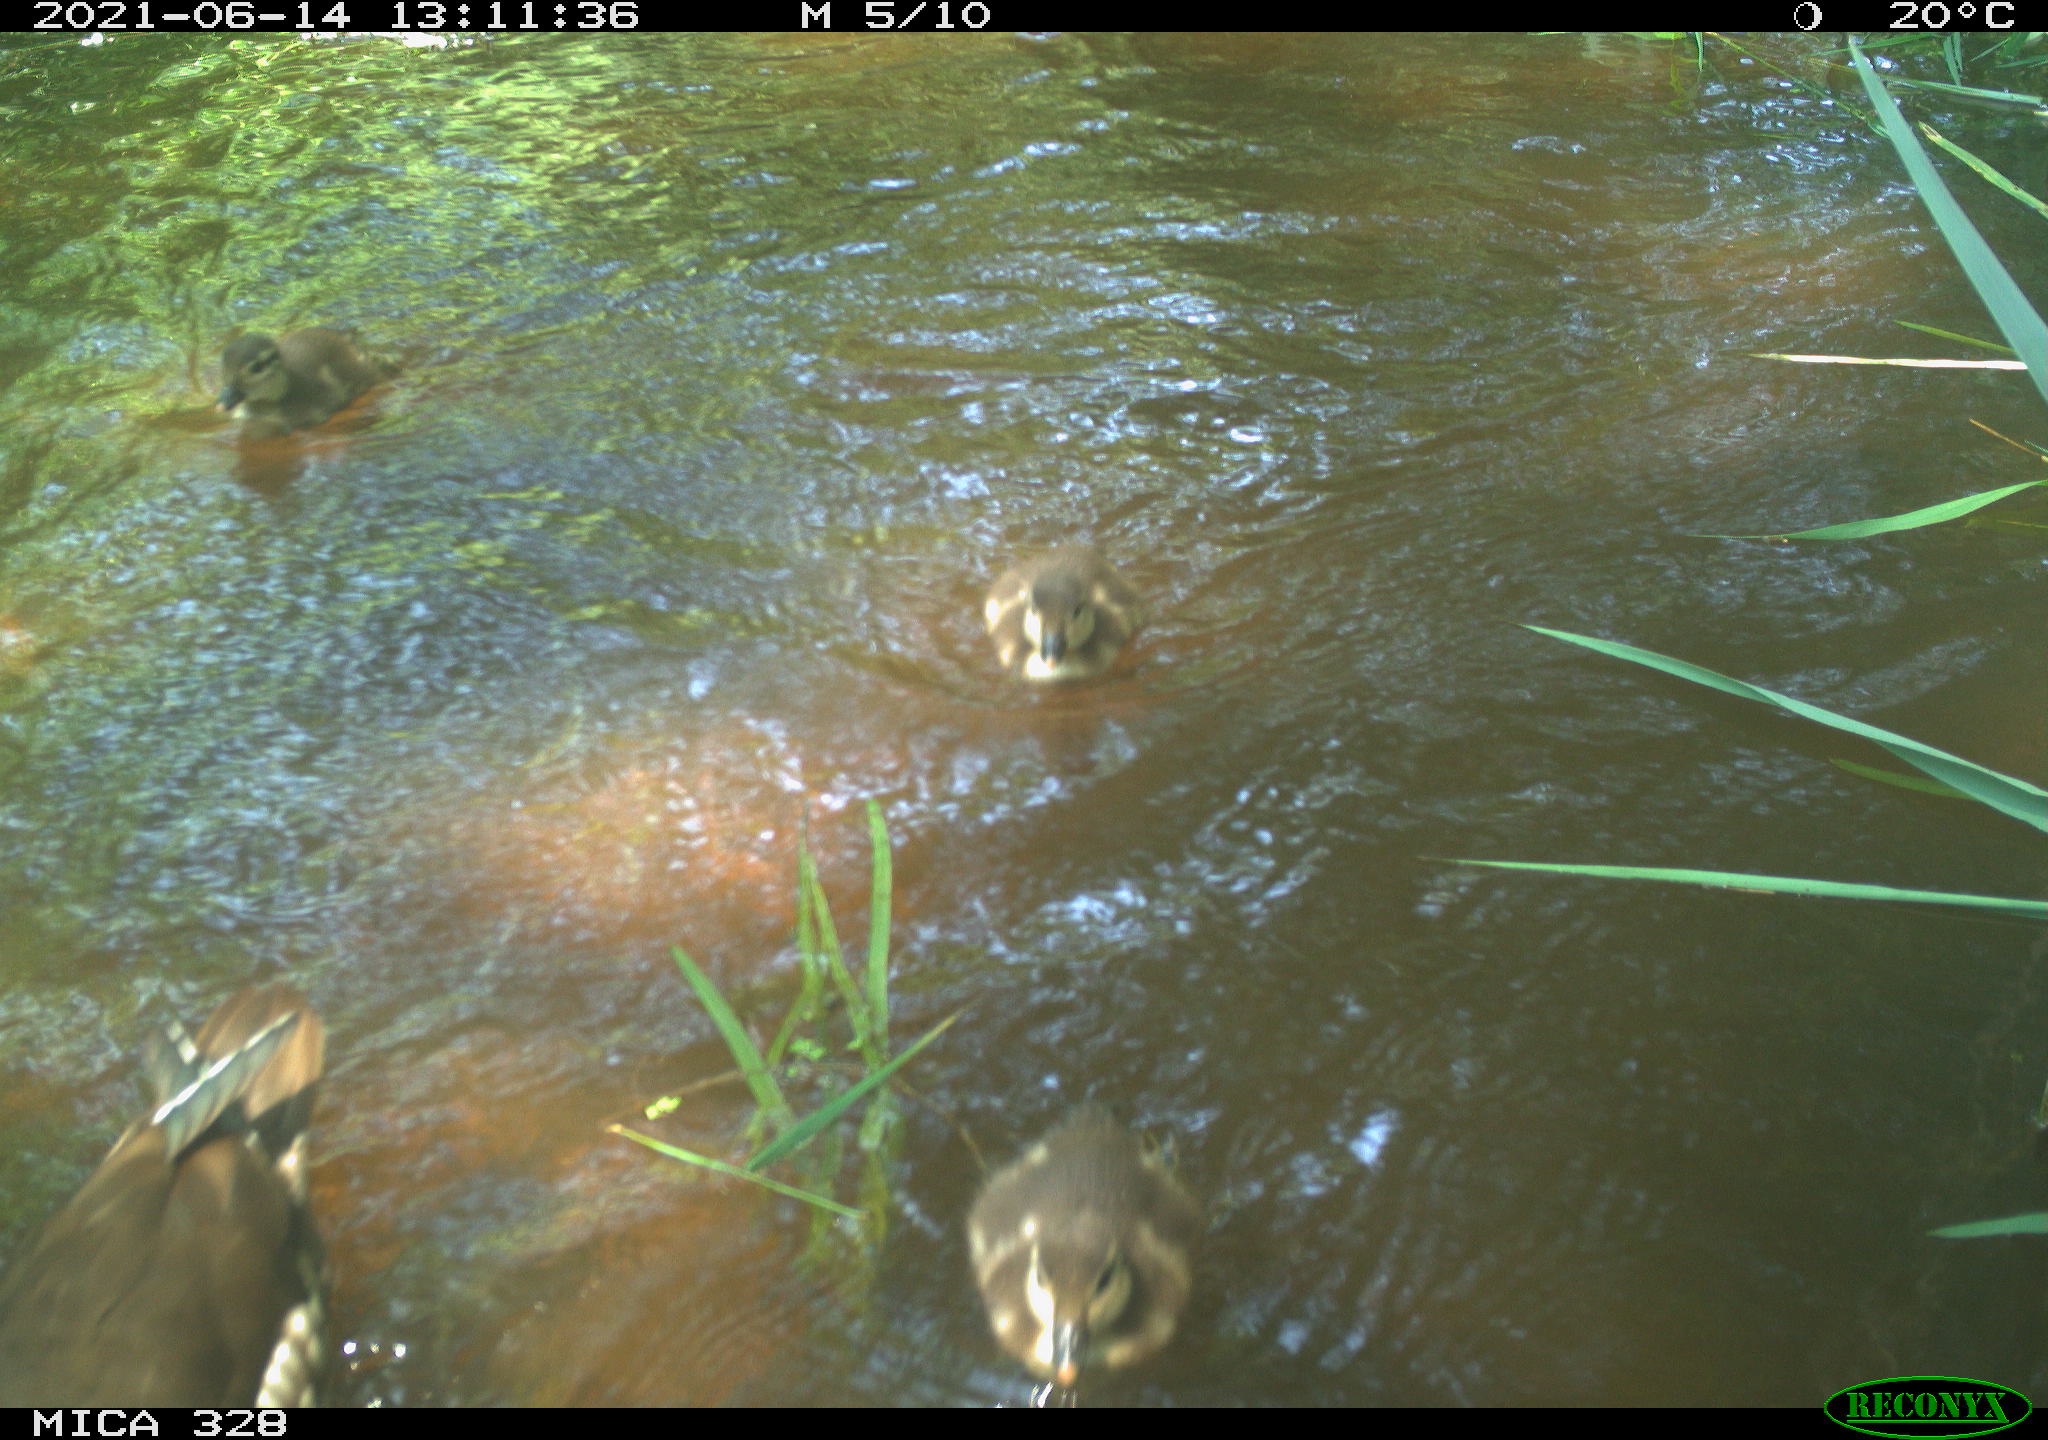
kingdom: Animalia
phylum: Chordata
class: Aves
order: Anseriformes
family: Anatidae
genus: Aix
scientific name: Aix galericulata
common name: Mandarin duck
